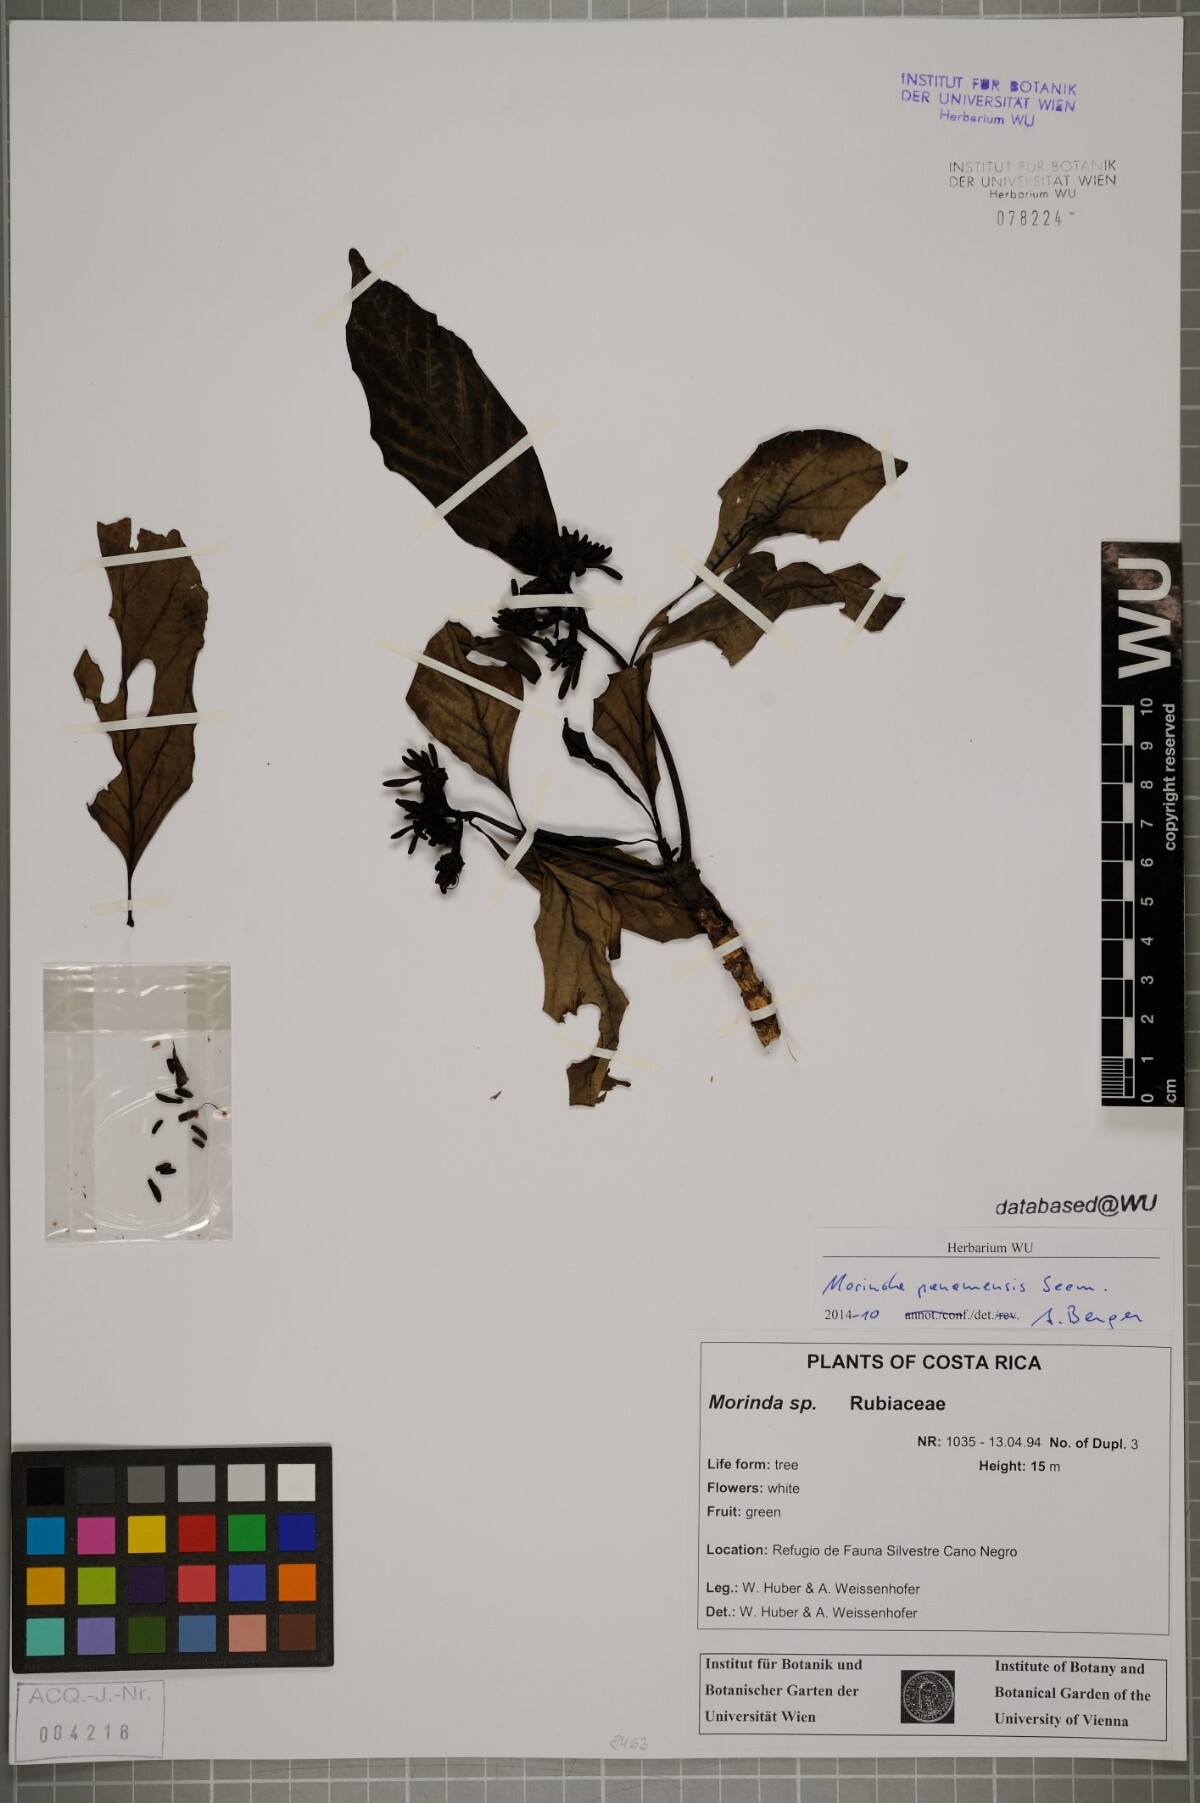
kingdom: Plantae
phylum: Tracheophyta
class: Magnoliopsida
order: Gentianales
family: Rubiaceae
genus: Morinda
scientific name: Morinda panamensis
